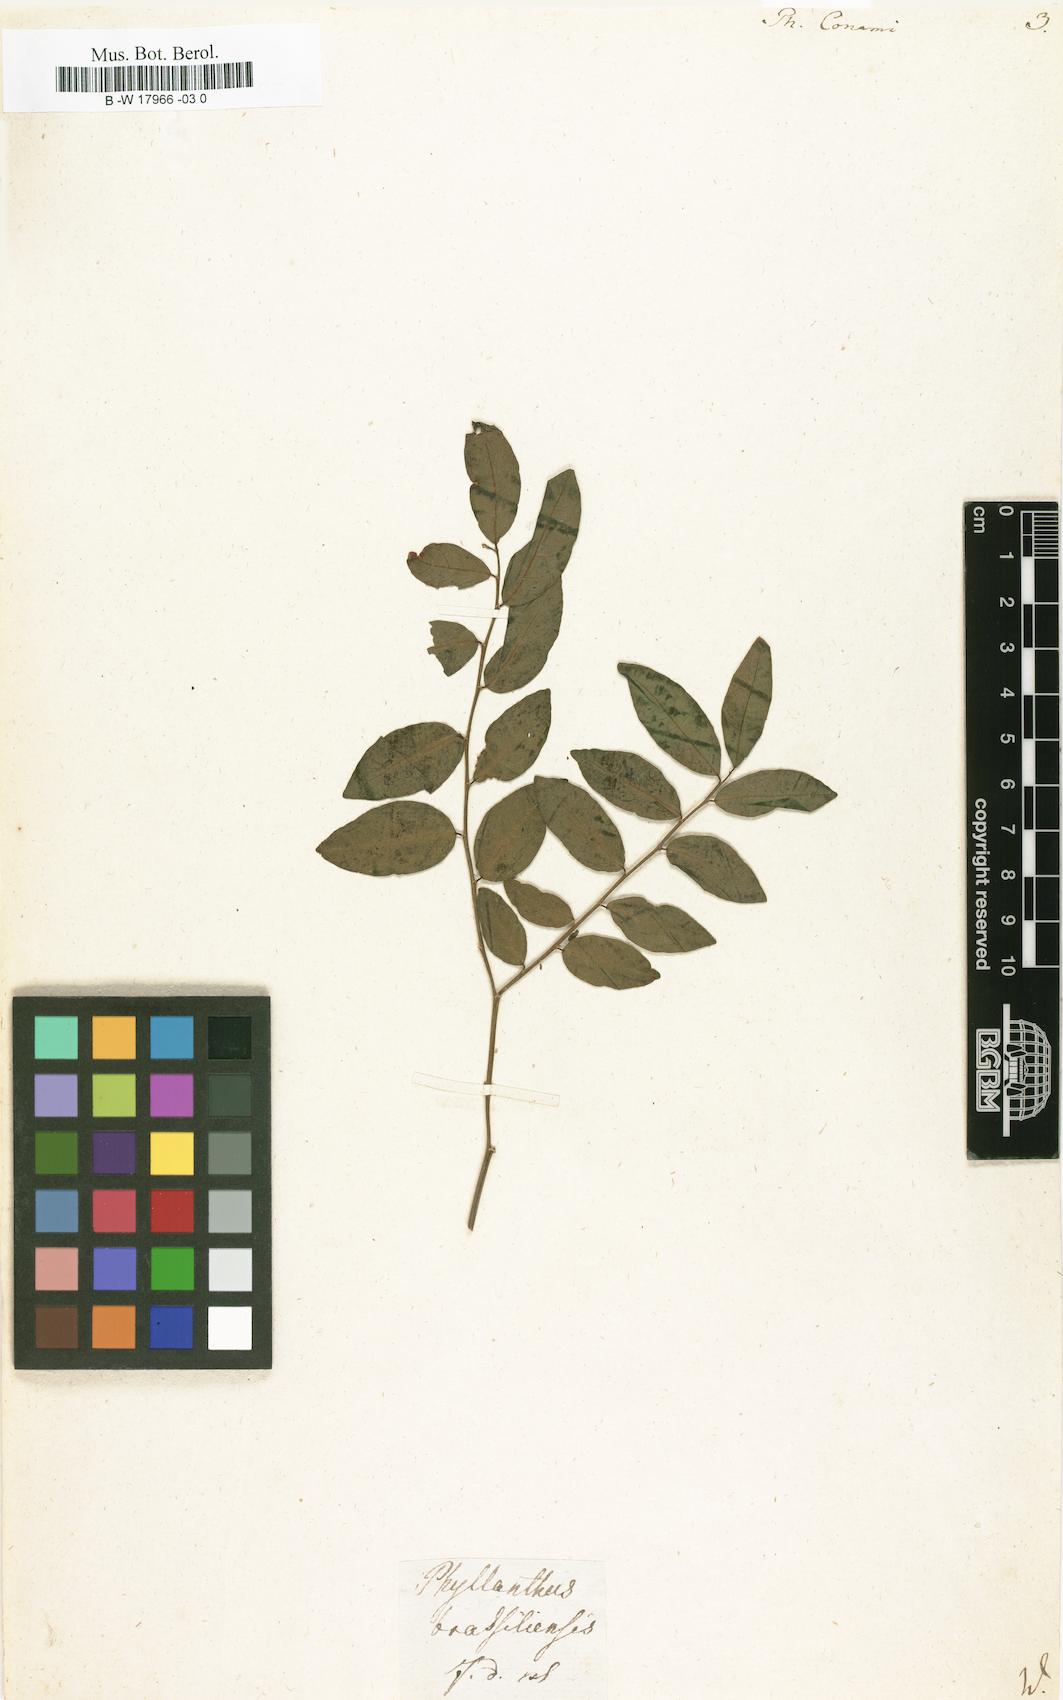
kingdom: Plantae
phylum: Tracheophyta
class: Magnoliopsida
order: Malpighiales
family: Phyllanthaceae
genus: Phyllanthus
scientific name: Phyllanthus brasiliensis
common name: Fish-poison
